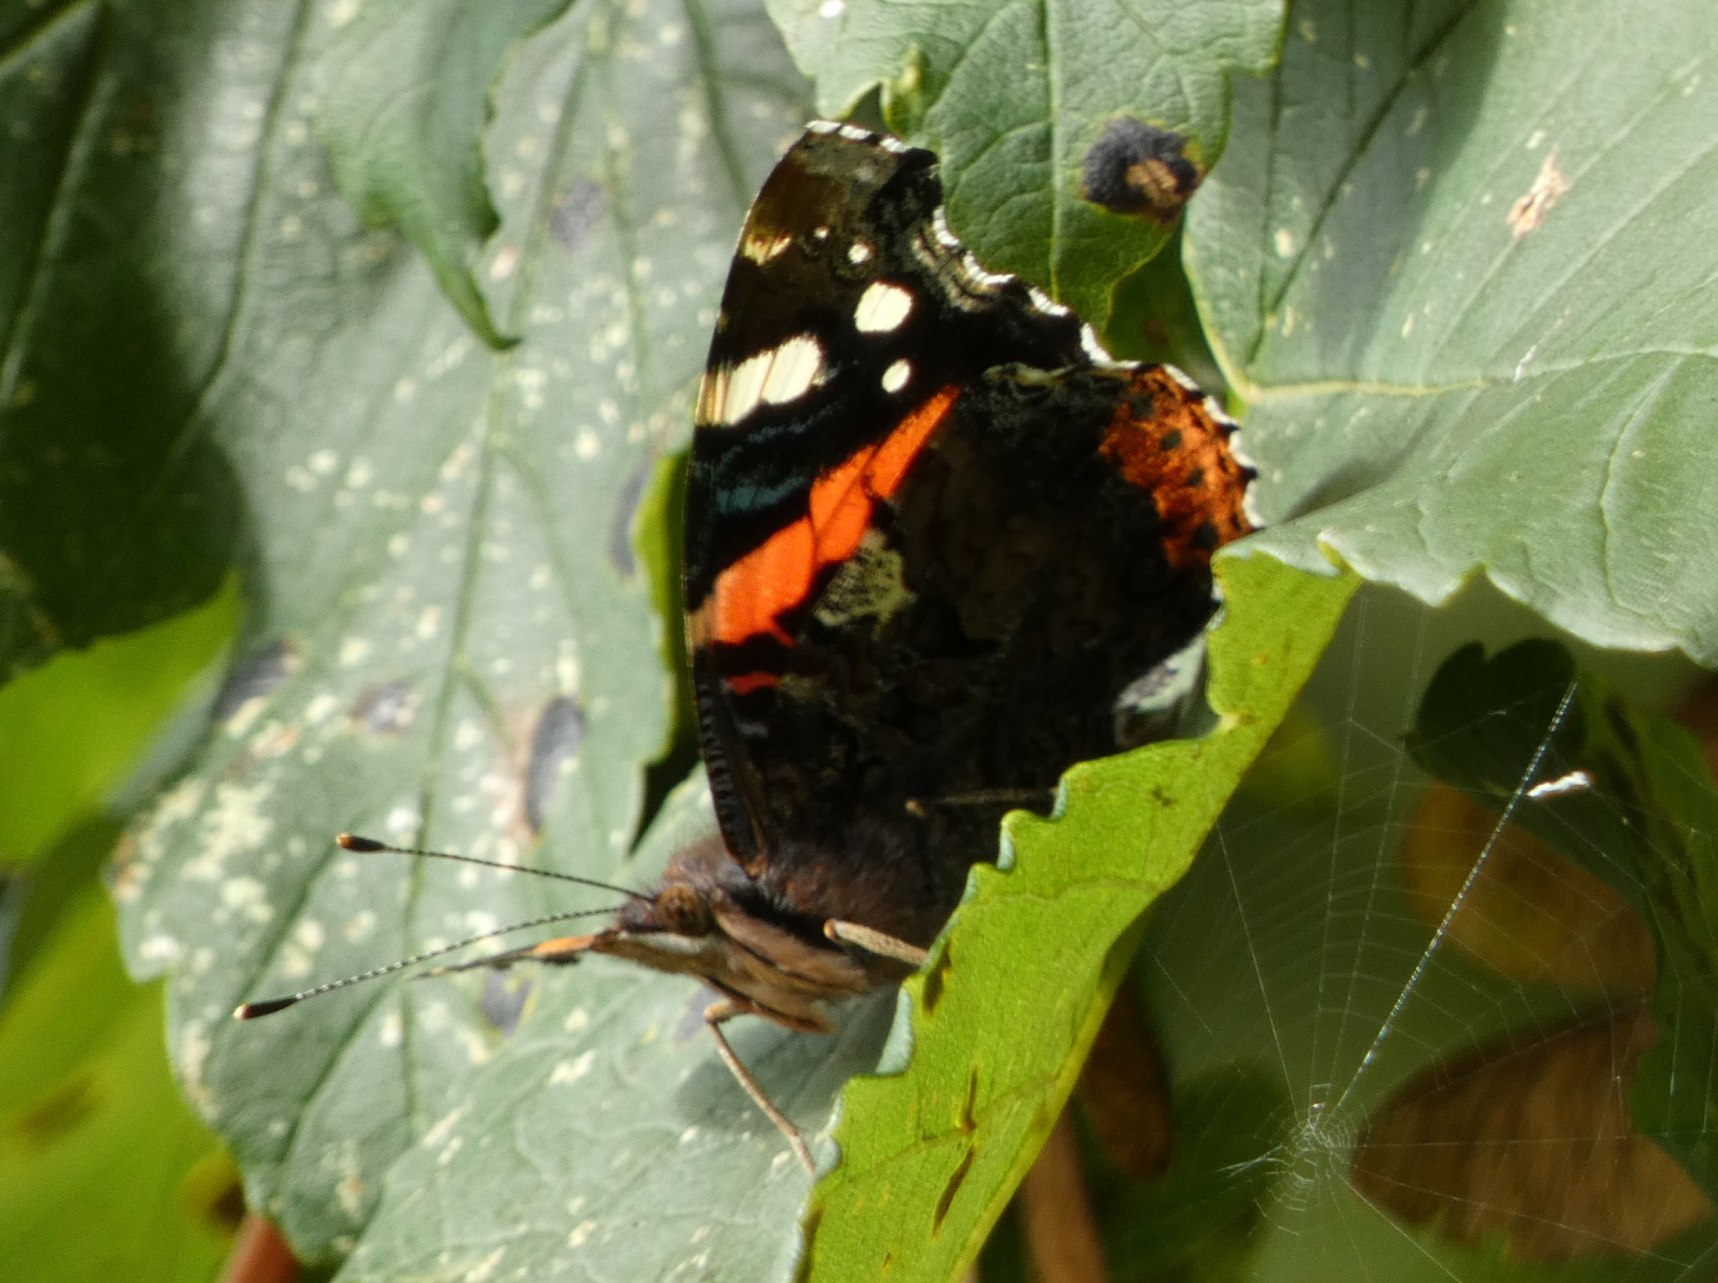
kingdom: Animalia
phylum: Arthropoda
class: Insecta
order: Lepidoptera
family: Nymphalidae
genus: Vanessa
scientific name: Vanessa atalanta
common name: Admiral
